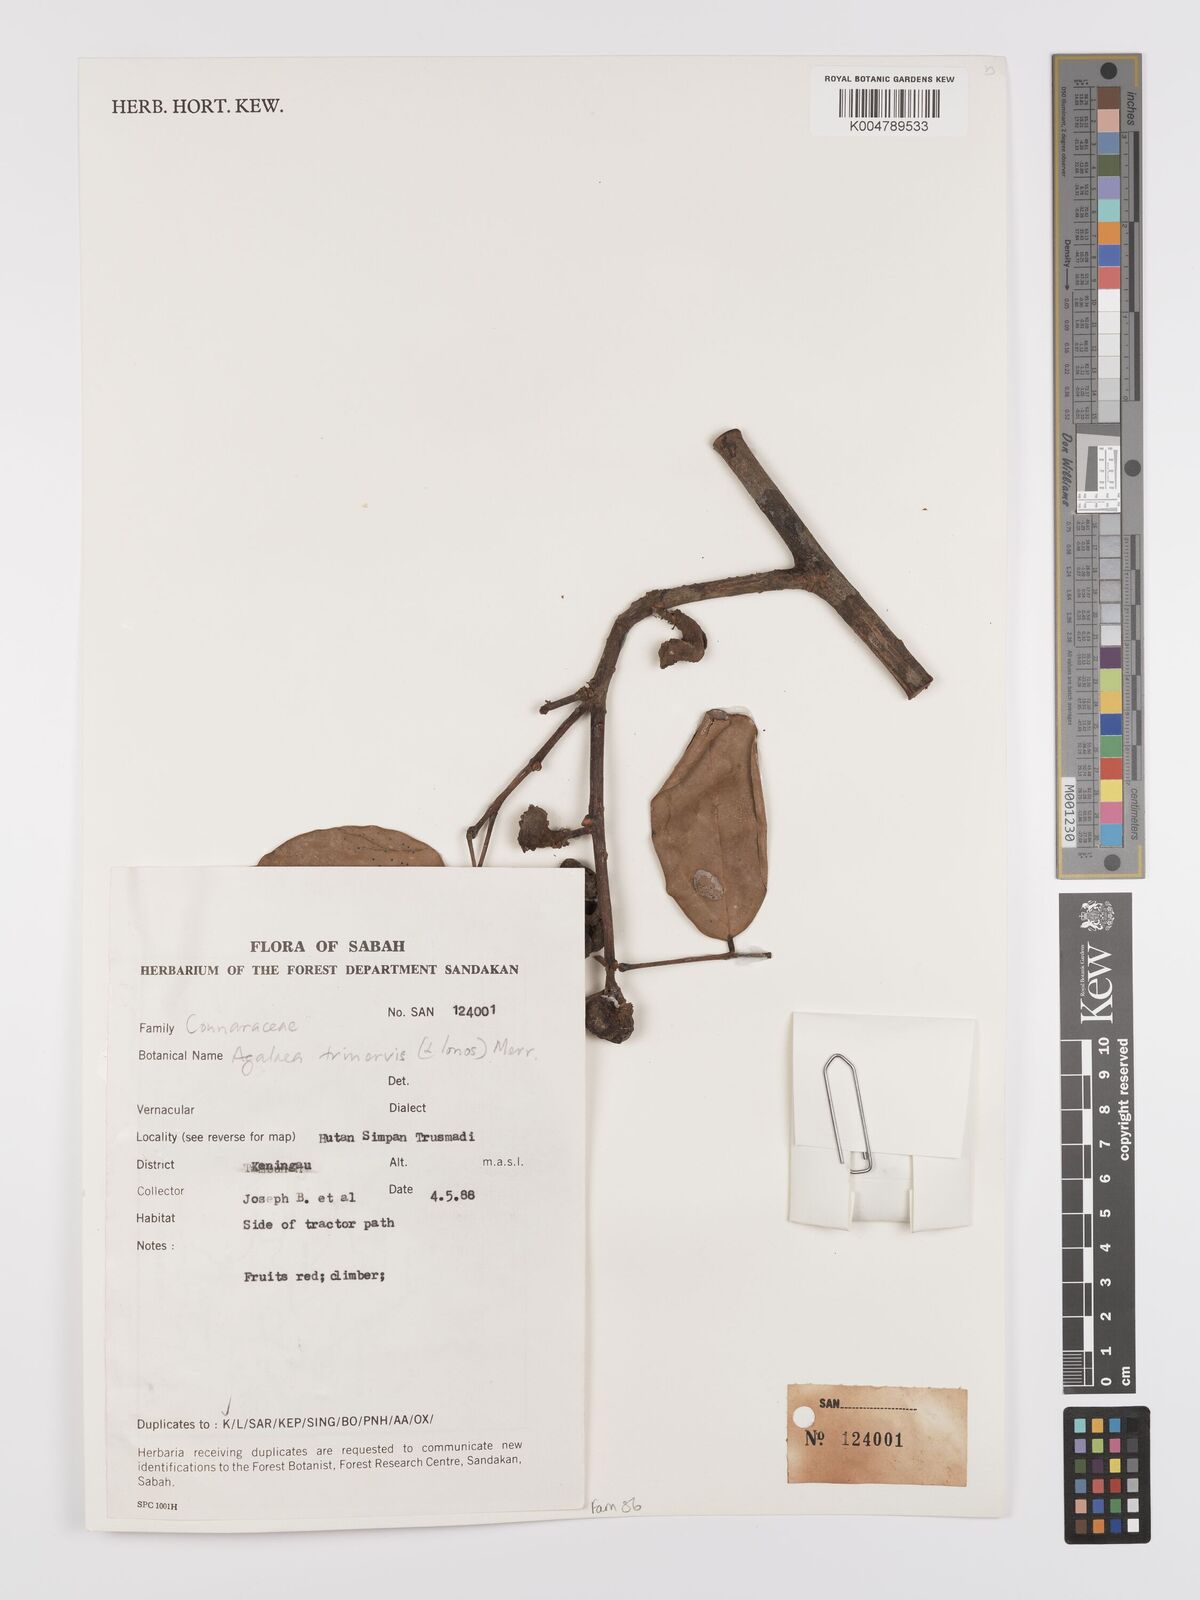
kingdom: Plantae
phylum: Tracheophyta
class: Magnoliopsida
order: Oxalidales
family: Connaraceae
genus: Agelaea
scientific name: Agelaea trinervis
